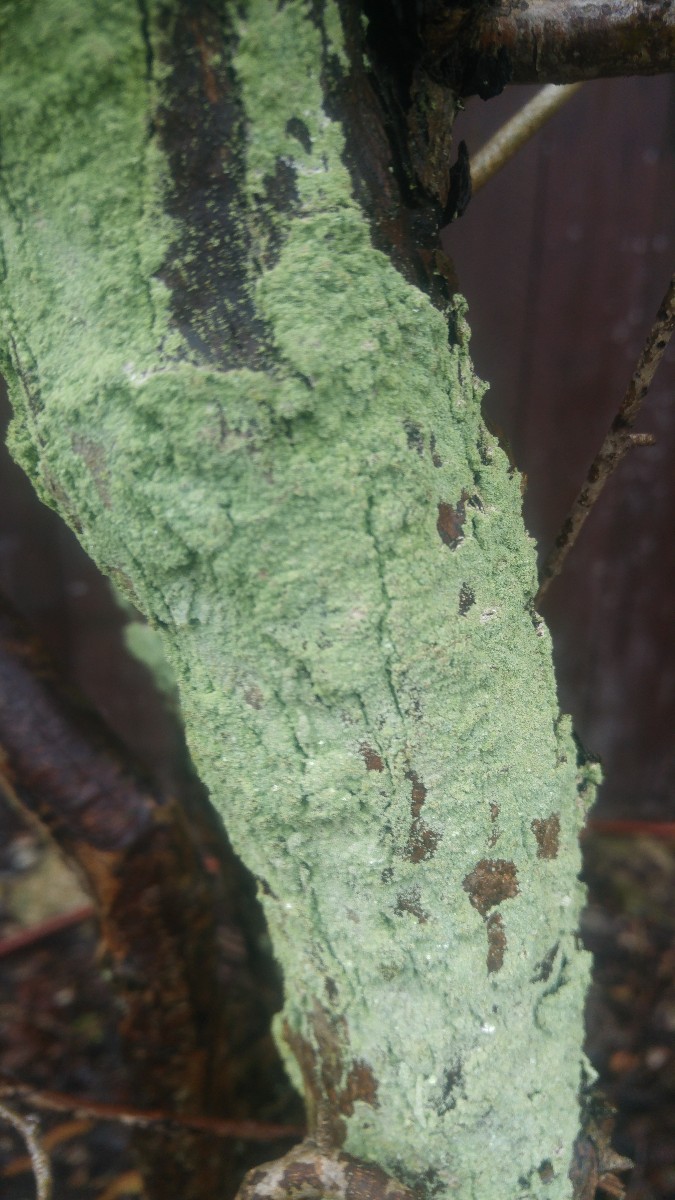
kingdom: Fungi
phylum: Ascomycota
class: Lecanoromycetes
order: Lecanorales
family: Stereocaulaceae
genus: Lepraria
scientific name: Lepraria incana
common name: almindelig støvlav
